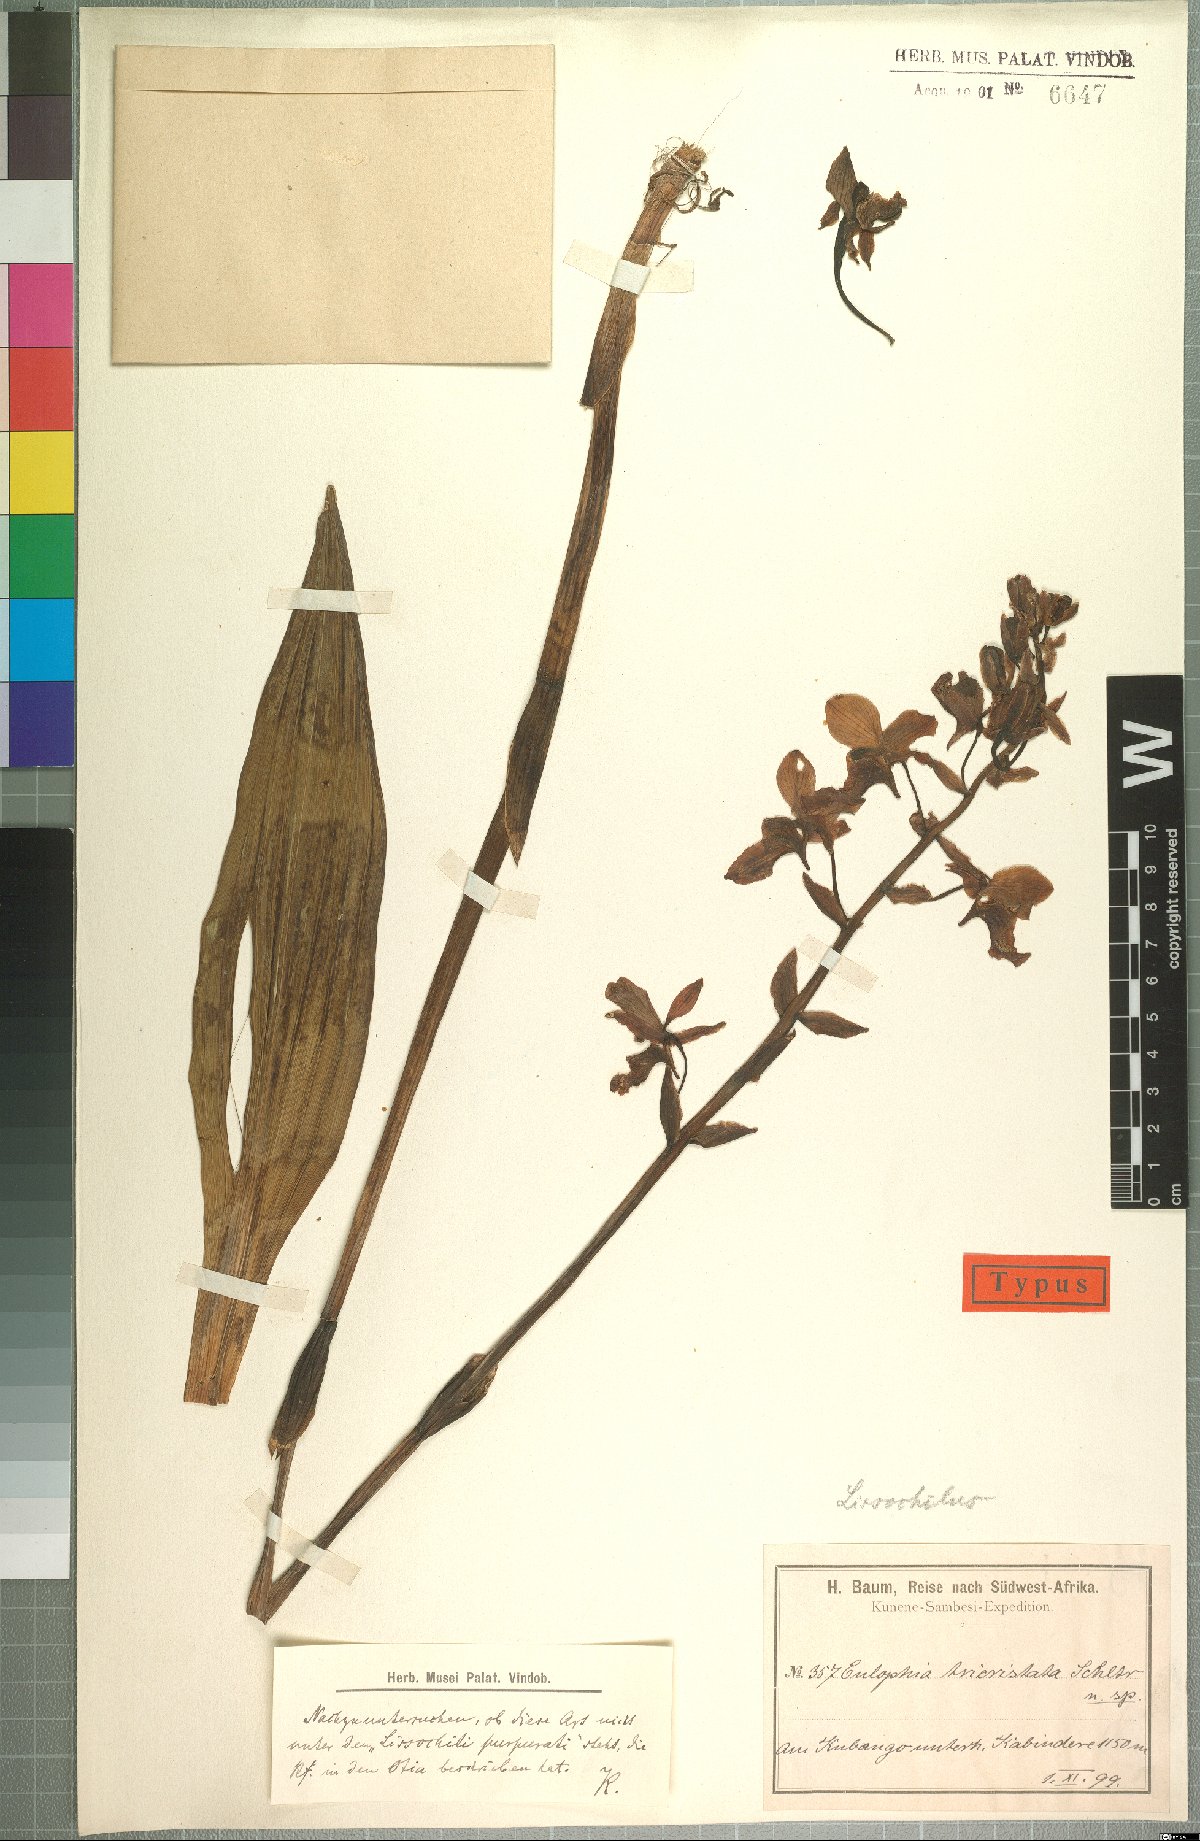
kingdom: Plantae
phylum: Tracheophyta
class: Liliopsida
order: Asparagales
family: Orchidaceae
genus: Eulophia
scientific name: Eulophia tricristata
